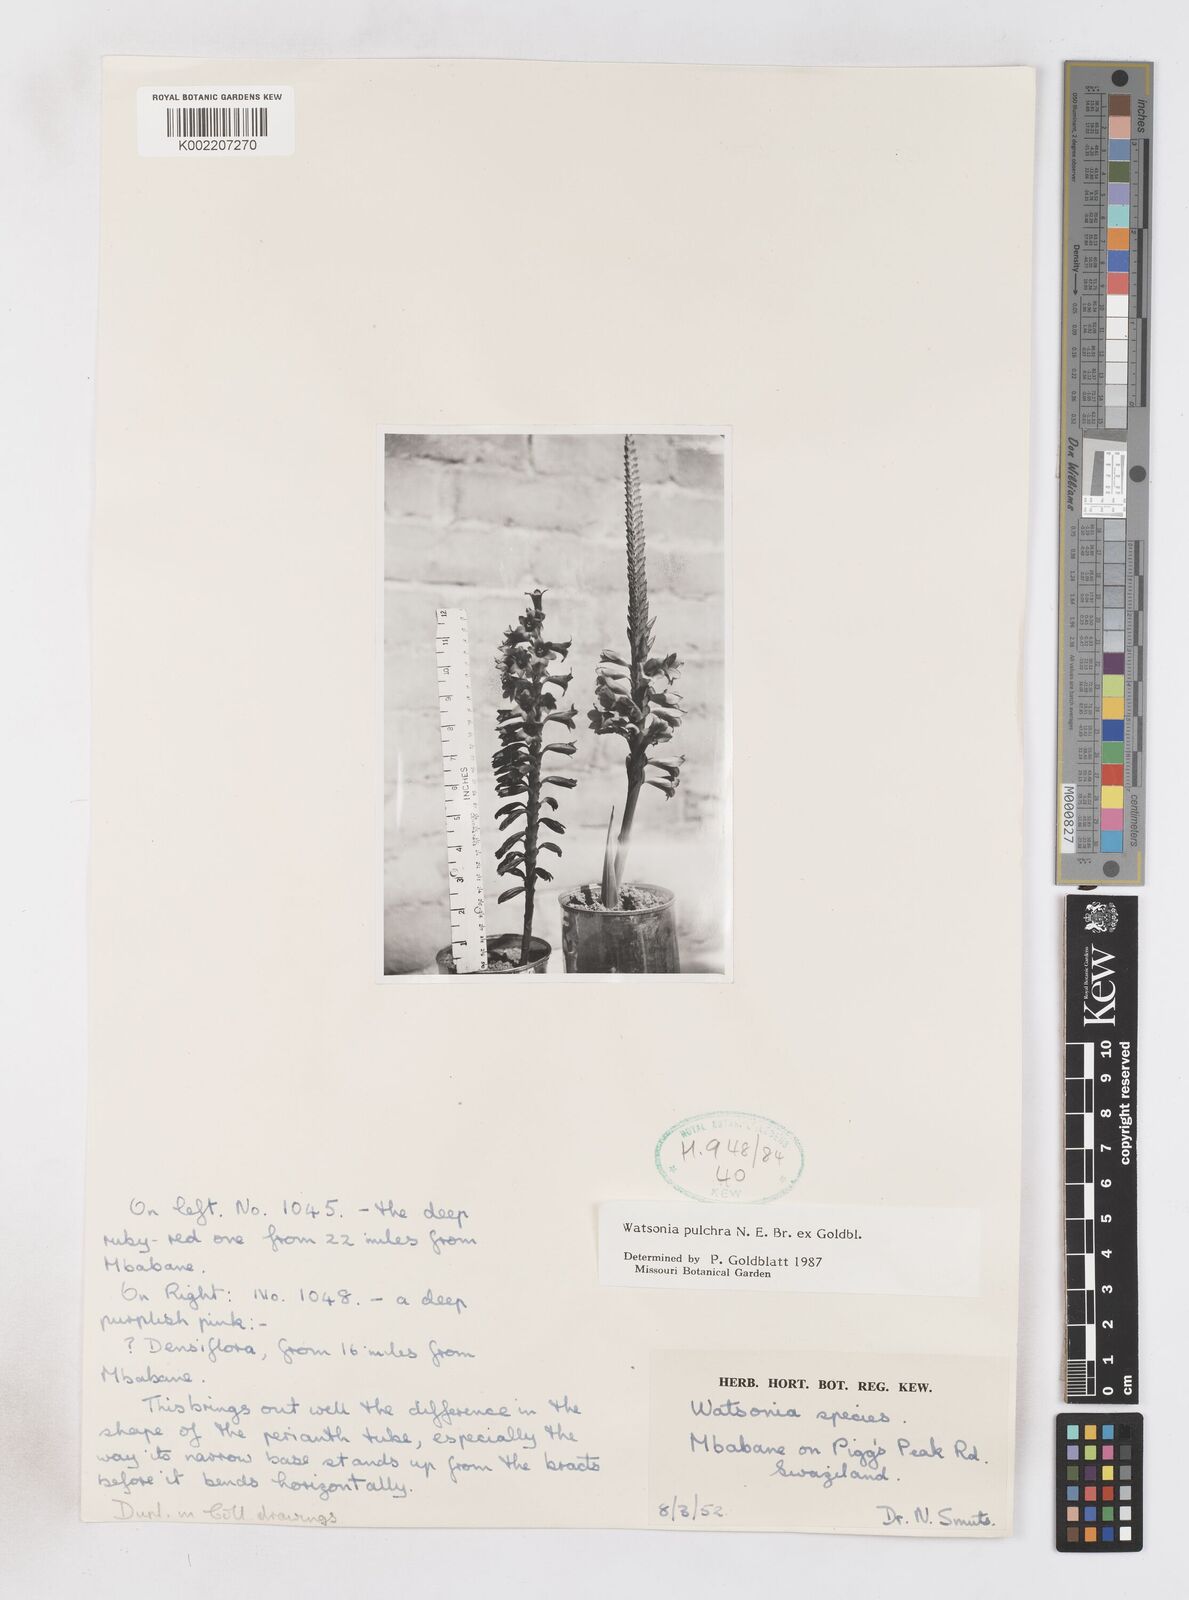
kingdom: Plantae
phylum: Tracheophyta
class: Liliopsida
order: Asparagales
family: Iridaceae
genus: Watsonia
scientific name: Watsonia pulchra
